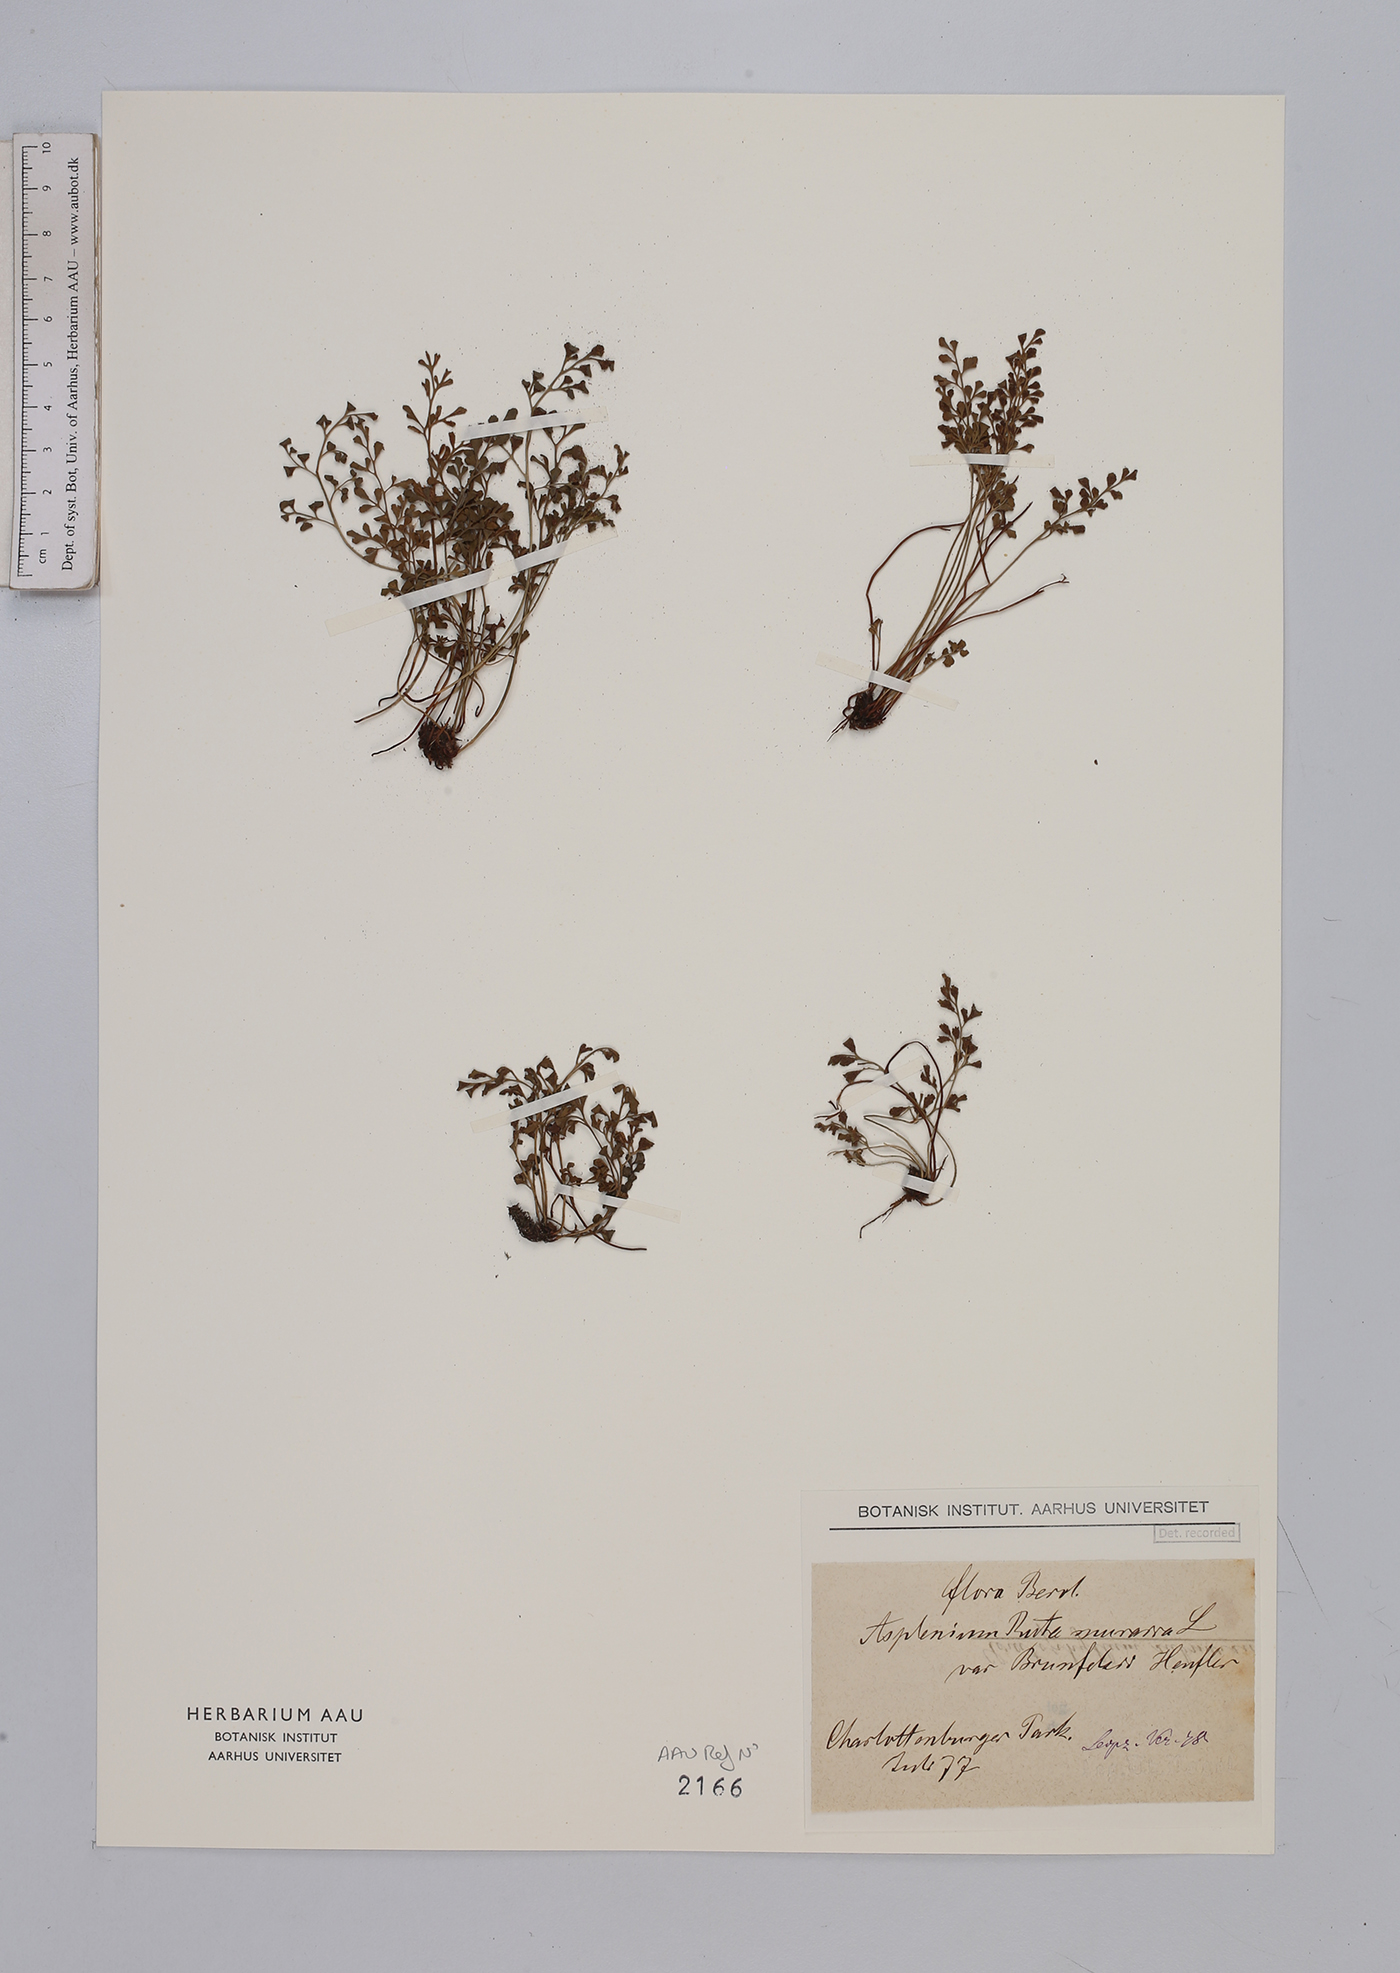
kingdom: Plantae
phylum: Tracheophyta
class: Polypodiopsida
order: Polypodiales
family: Aspleniaceae
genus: Asplenium
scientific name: Asplenium ruta-muraria
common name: Wall-rue
